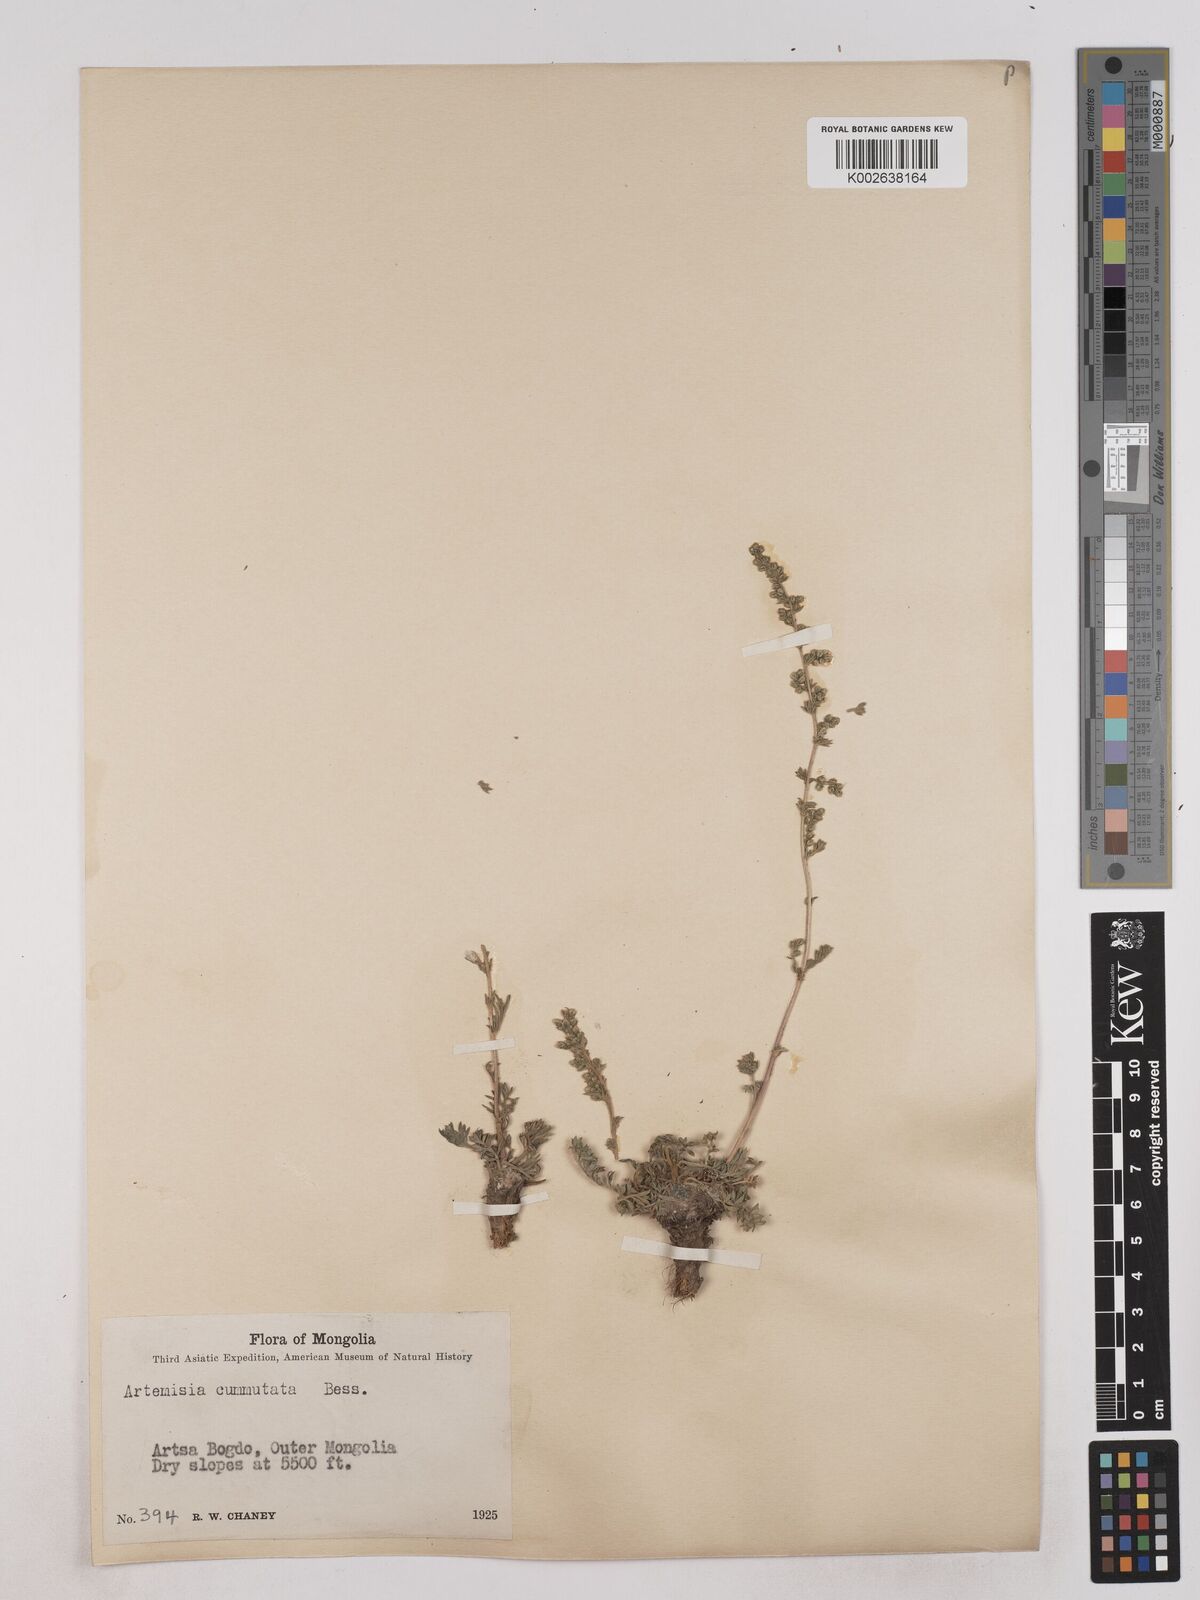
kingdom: Plantae
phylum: Tracheophyta
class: Magnoliopsida
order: Asterales
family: Asteraceae
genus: Artemisia
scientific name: Artemisia pubescens
